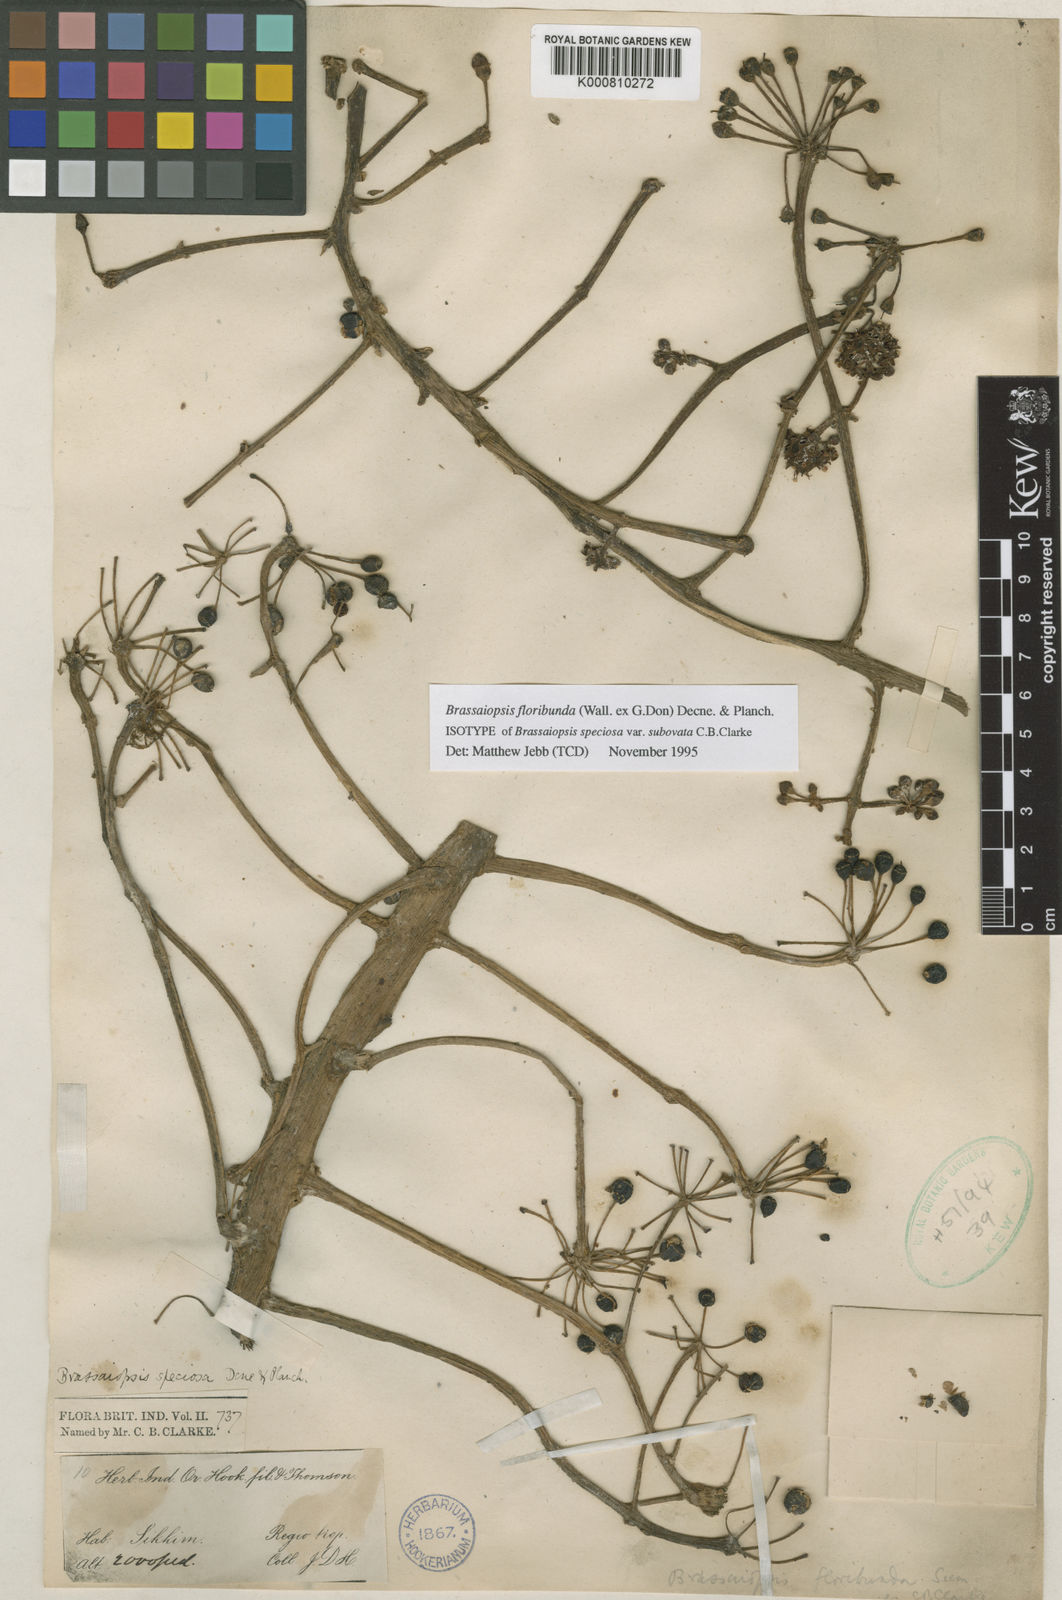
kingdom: Plantae
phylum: Tracheophyta
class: Magnoliopsida
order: Apiales
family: Araliaceae
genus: Brassaiopsis
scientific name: Brassaiopsis glomerulata
